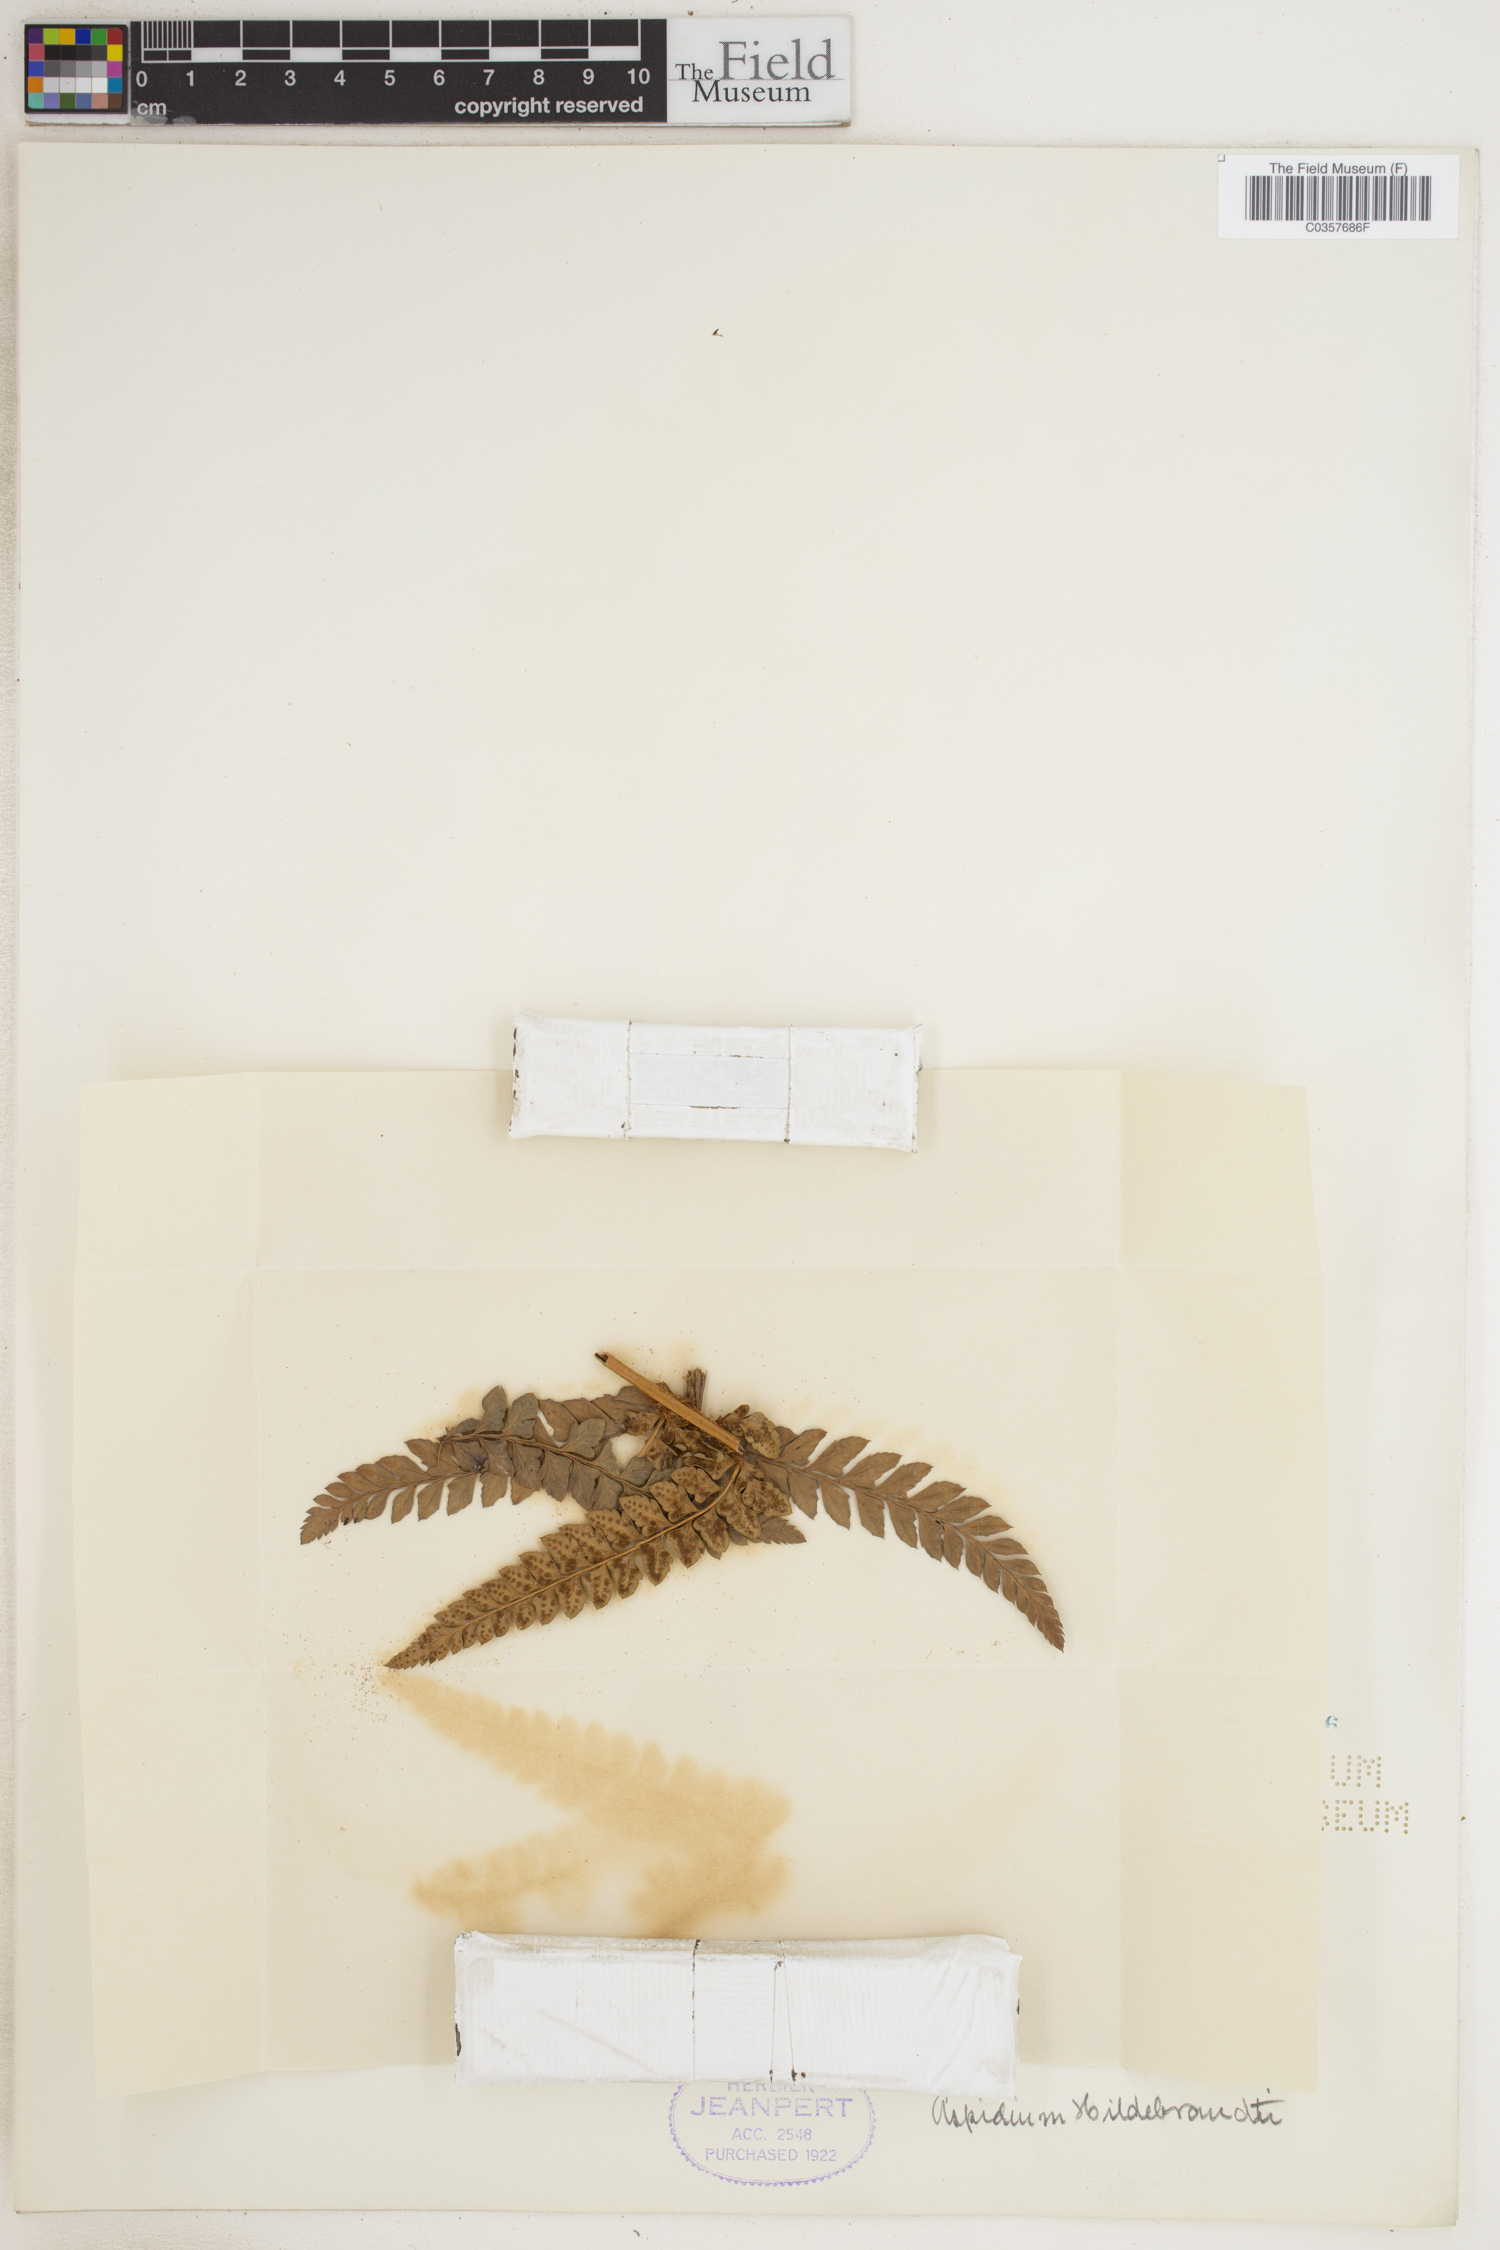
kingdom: Plantae
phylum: Tracheophyta
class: Polypodiopsida
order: Polypodiales
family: Dryopteridaceae
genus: Polystichum
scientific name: Polystichum aculeatum
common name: Hard shield-fern
